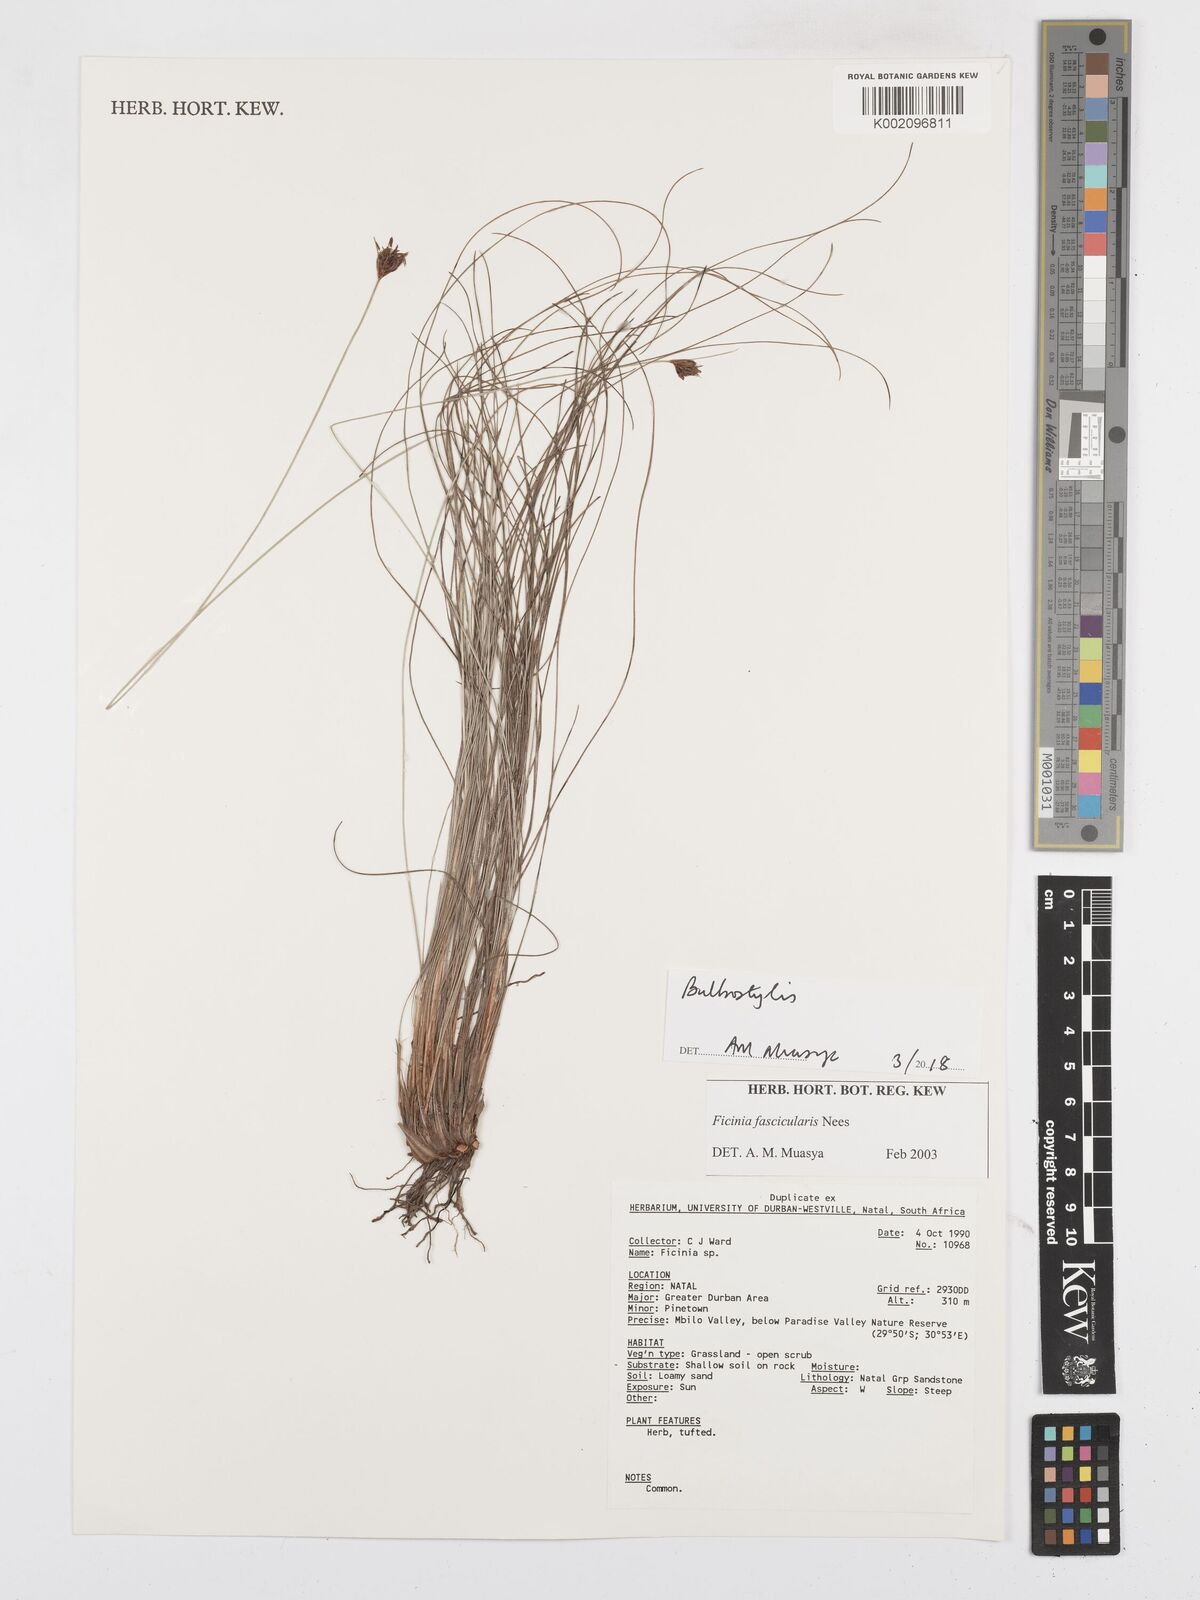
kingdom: Plantae
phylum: Tracheophyta
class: Liliopsida
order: Poales
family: Cyperaceae
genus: Bulbostylis
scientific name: Bulbostylis
